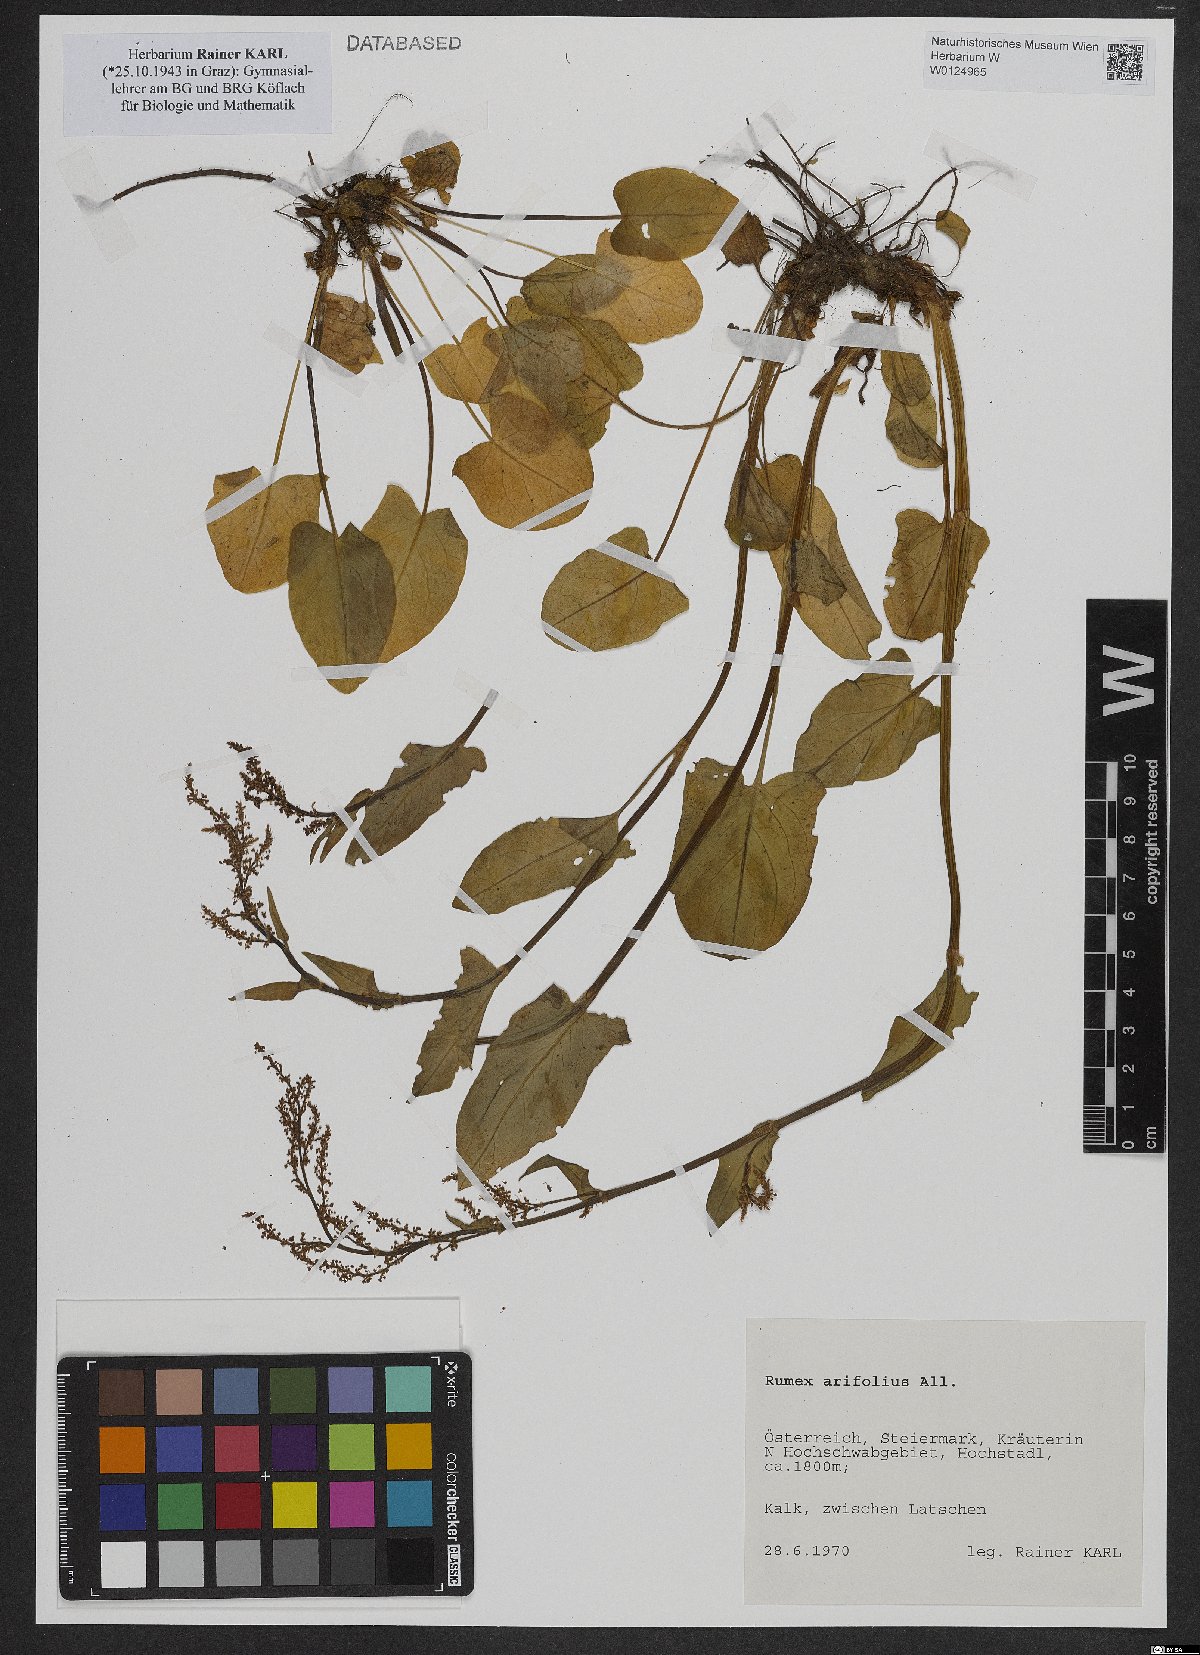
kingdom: Plantae
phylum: Tracheophyta
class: Magnoliopsida
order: Caryophyllales
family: Polygonaceae
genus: Rumex
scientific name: Rumex arifolius
